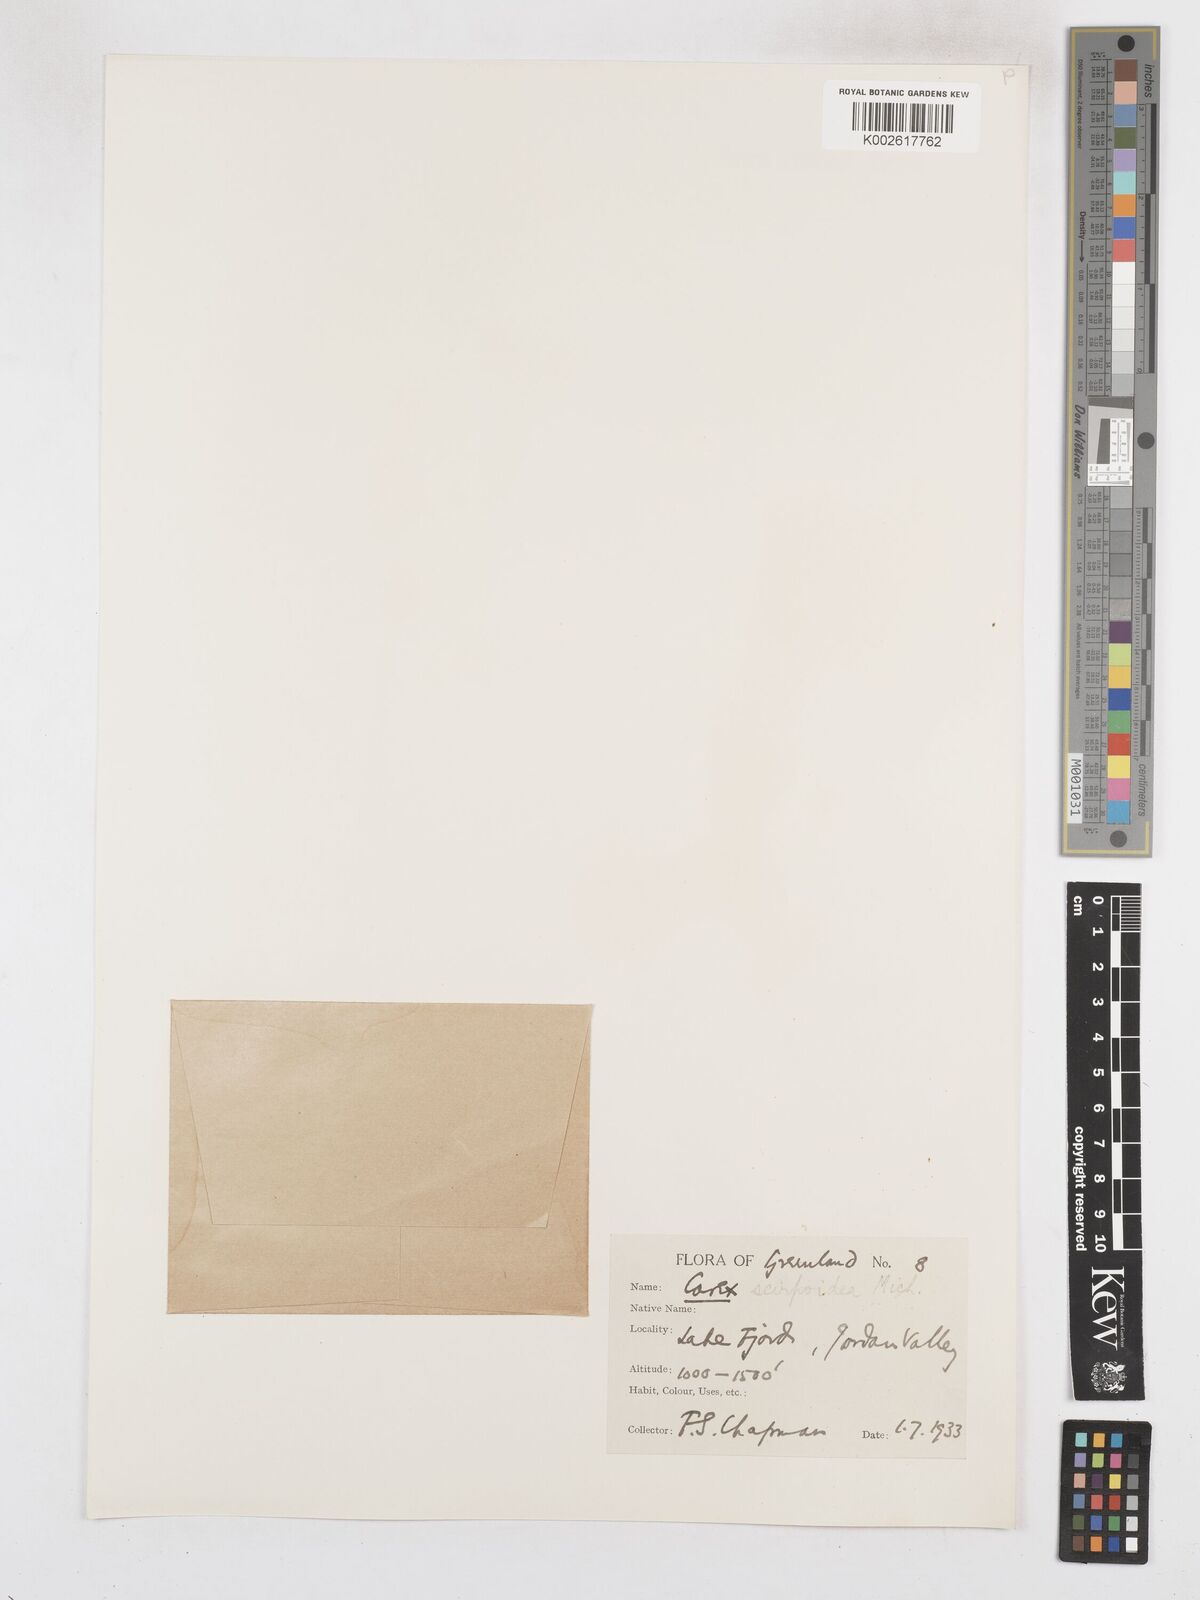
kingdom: Plantae
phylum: Tracheophyta
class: Liliopsida
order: Poales
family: Cyperaceae
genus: Carex
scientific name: Carex scirpoidea
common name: Canada single-spike sedge
